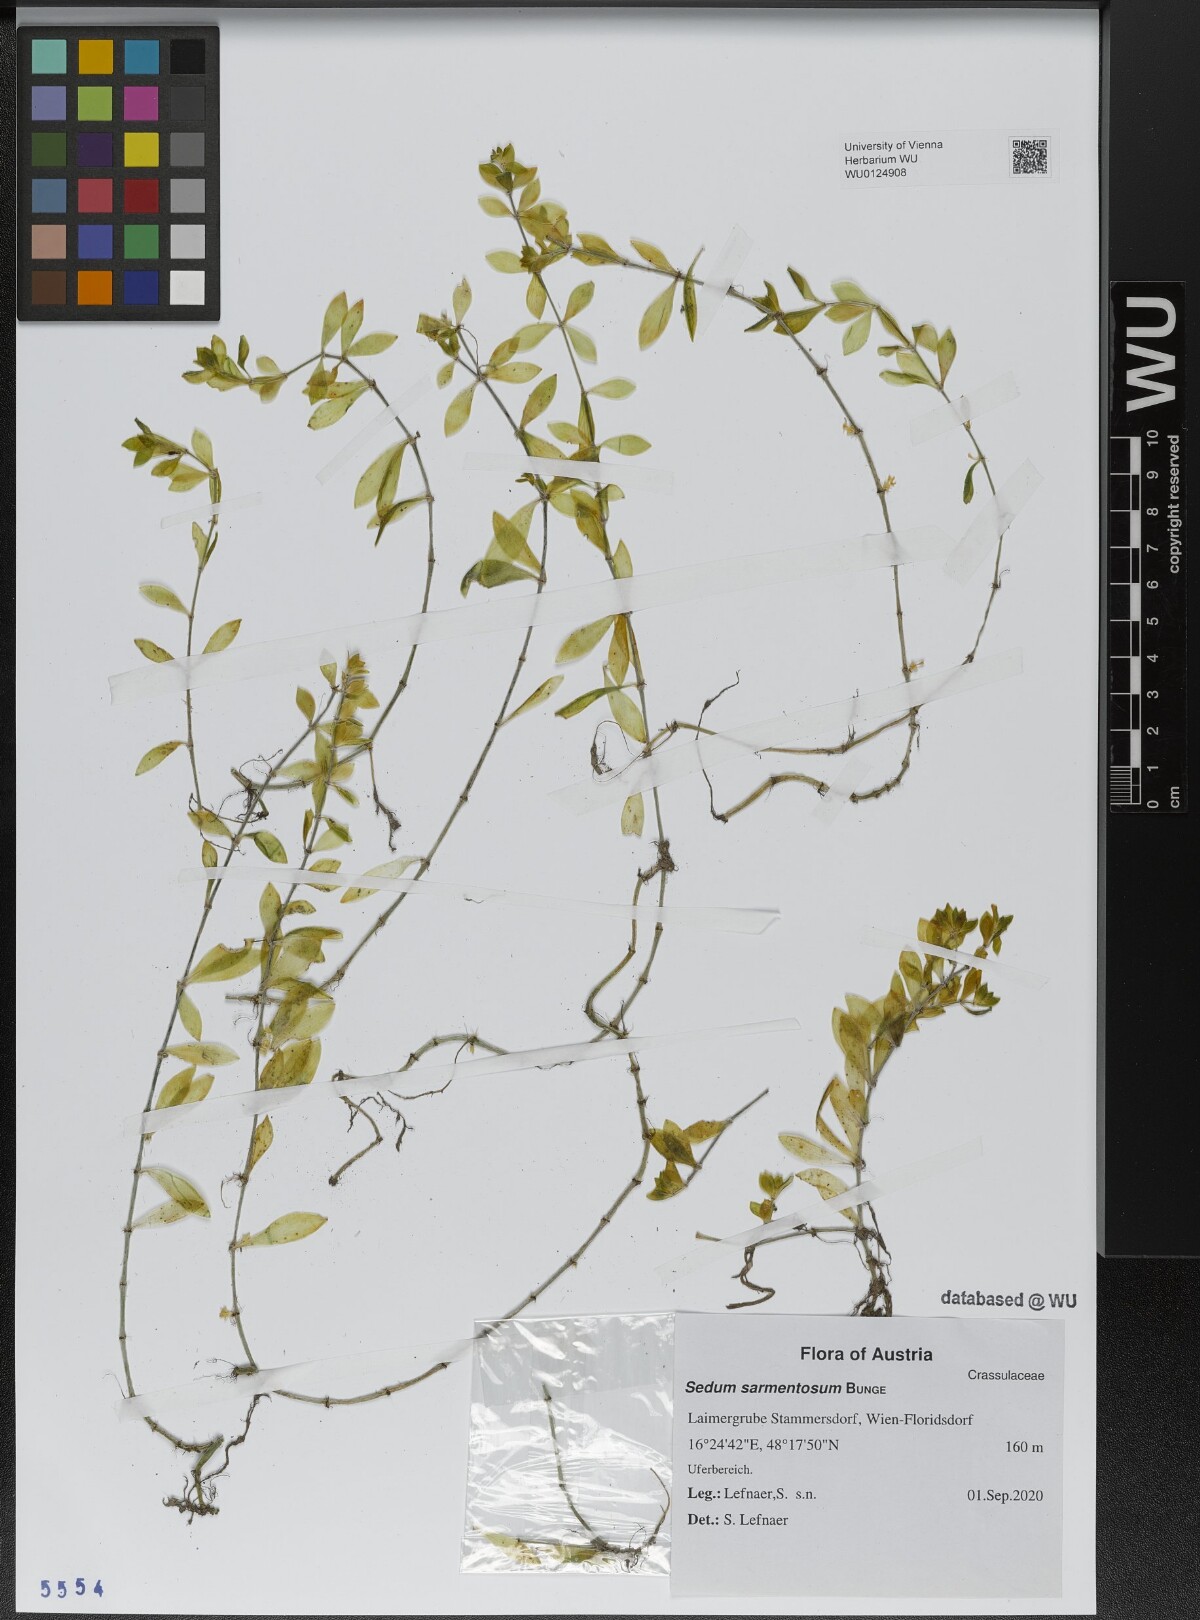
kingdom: Plantae
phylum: Tracheophyta
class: Magnoliopsida
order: Saxifragales
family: Crassulaceae
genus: Sedum
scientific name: Sedum sarmentosum
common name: Stringy stonecrop
